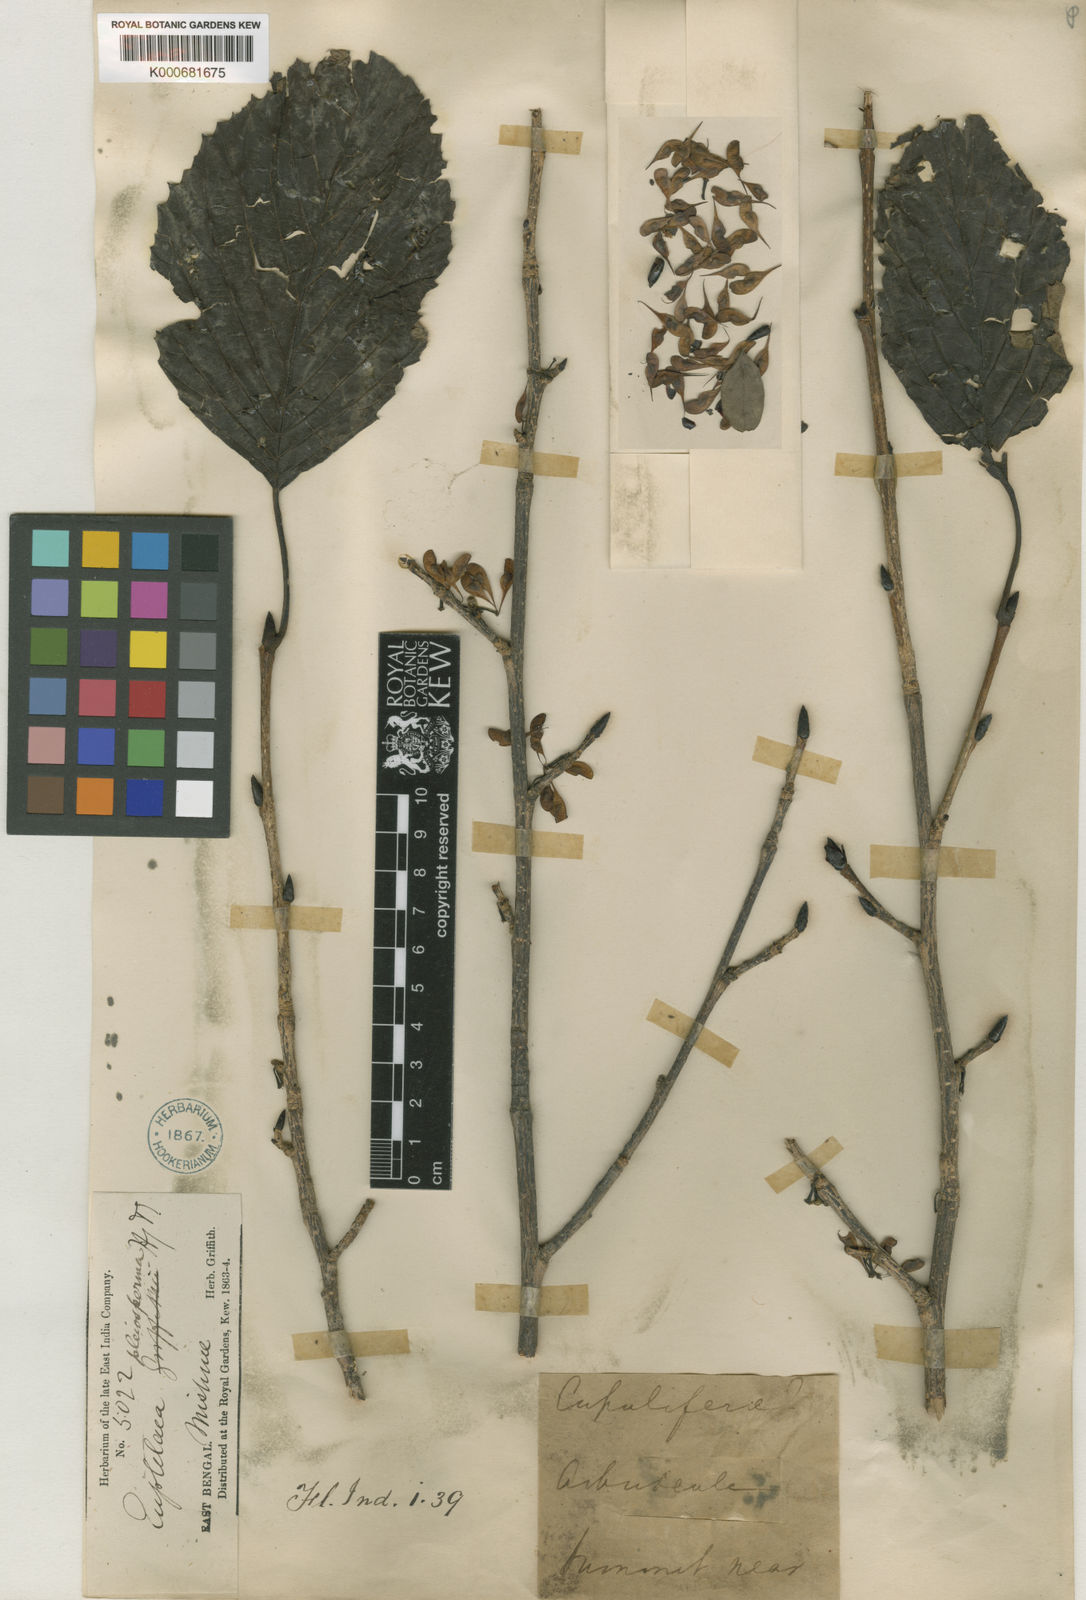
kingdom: Plantae
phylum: Tracheophyta
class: Magnoliopsida
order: Ranunculales
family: Eupteleaceae
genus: Euptelea
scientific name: Euptelea pleiosperma
